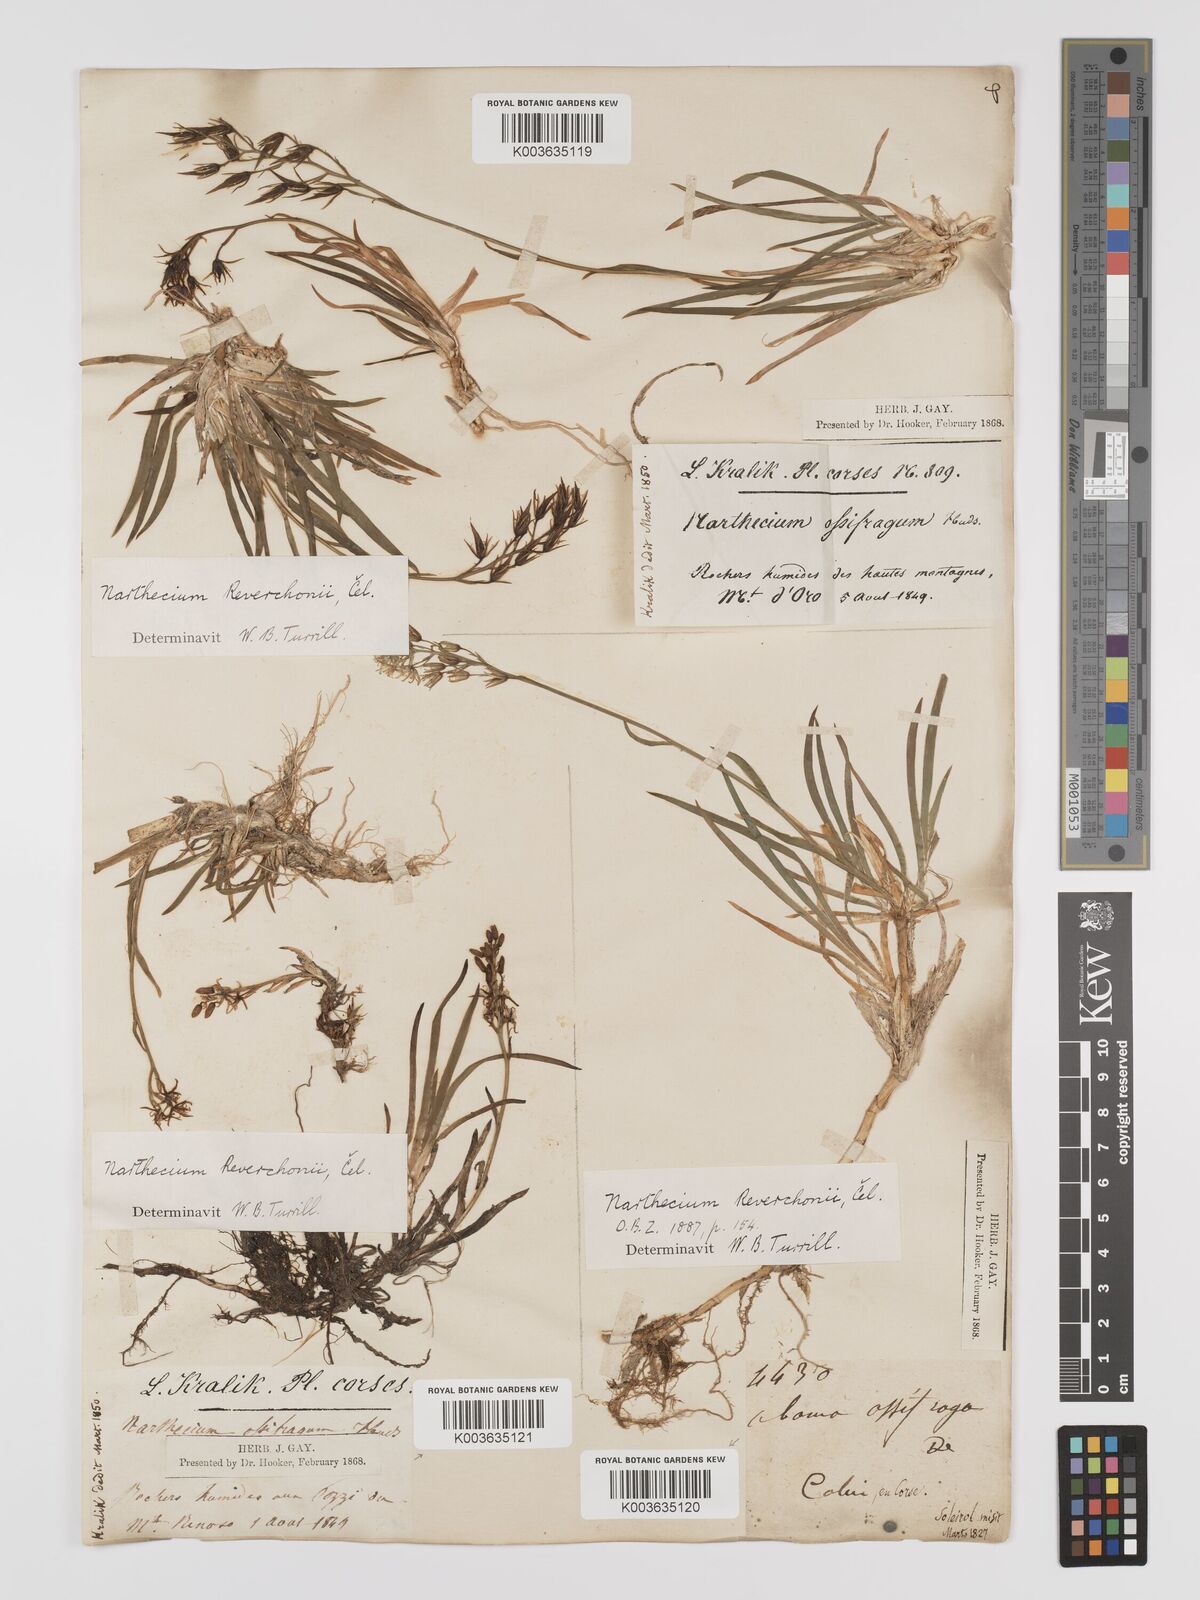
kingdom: Plantae
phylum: Tracheophyta
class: Liliopsida
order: Dioscoreales
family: Nartheciaceae
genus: Narthecium
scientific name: Narthecium reverchonii
